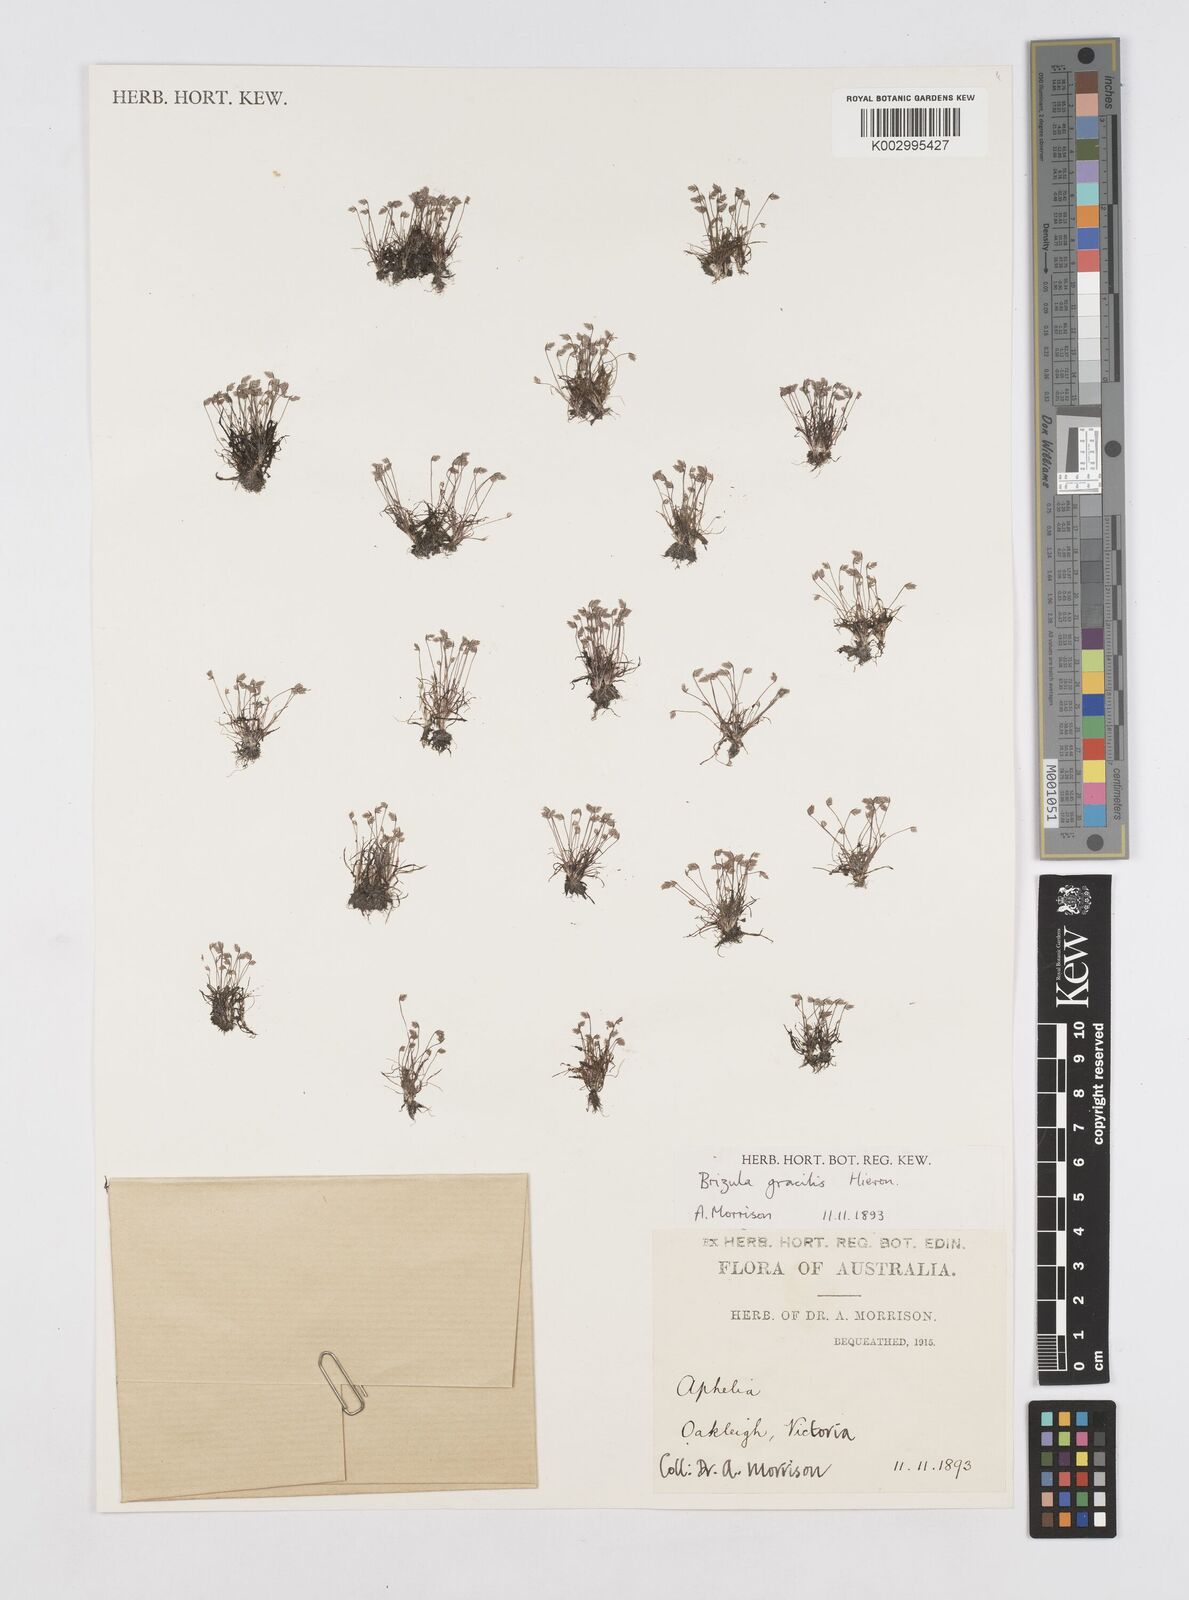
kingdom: Plantae
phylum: Tracheophyta
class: Liliopsida
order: Poales
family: Restionaceae
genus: Aphelia
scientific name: Aphelia gracilis
